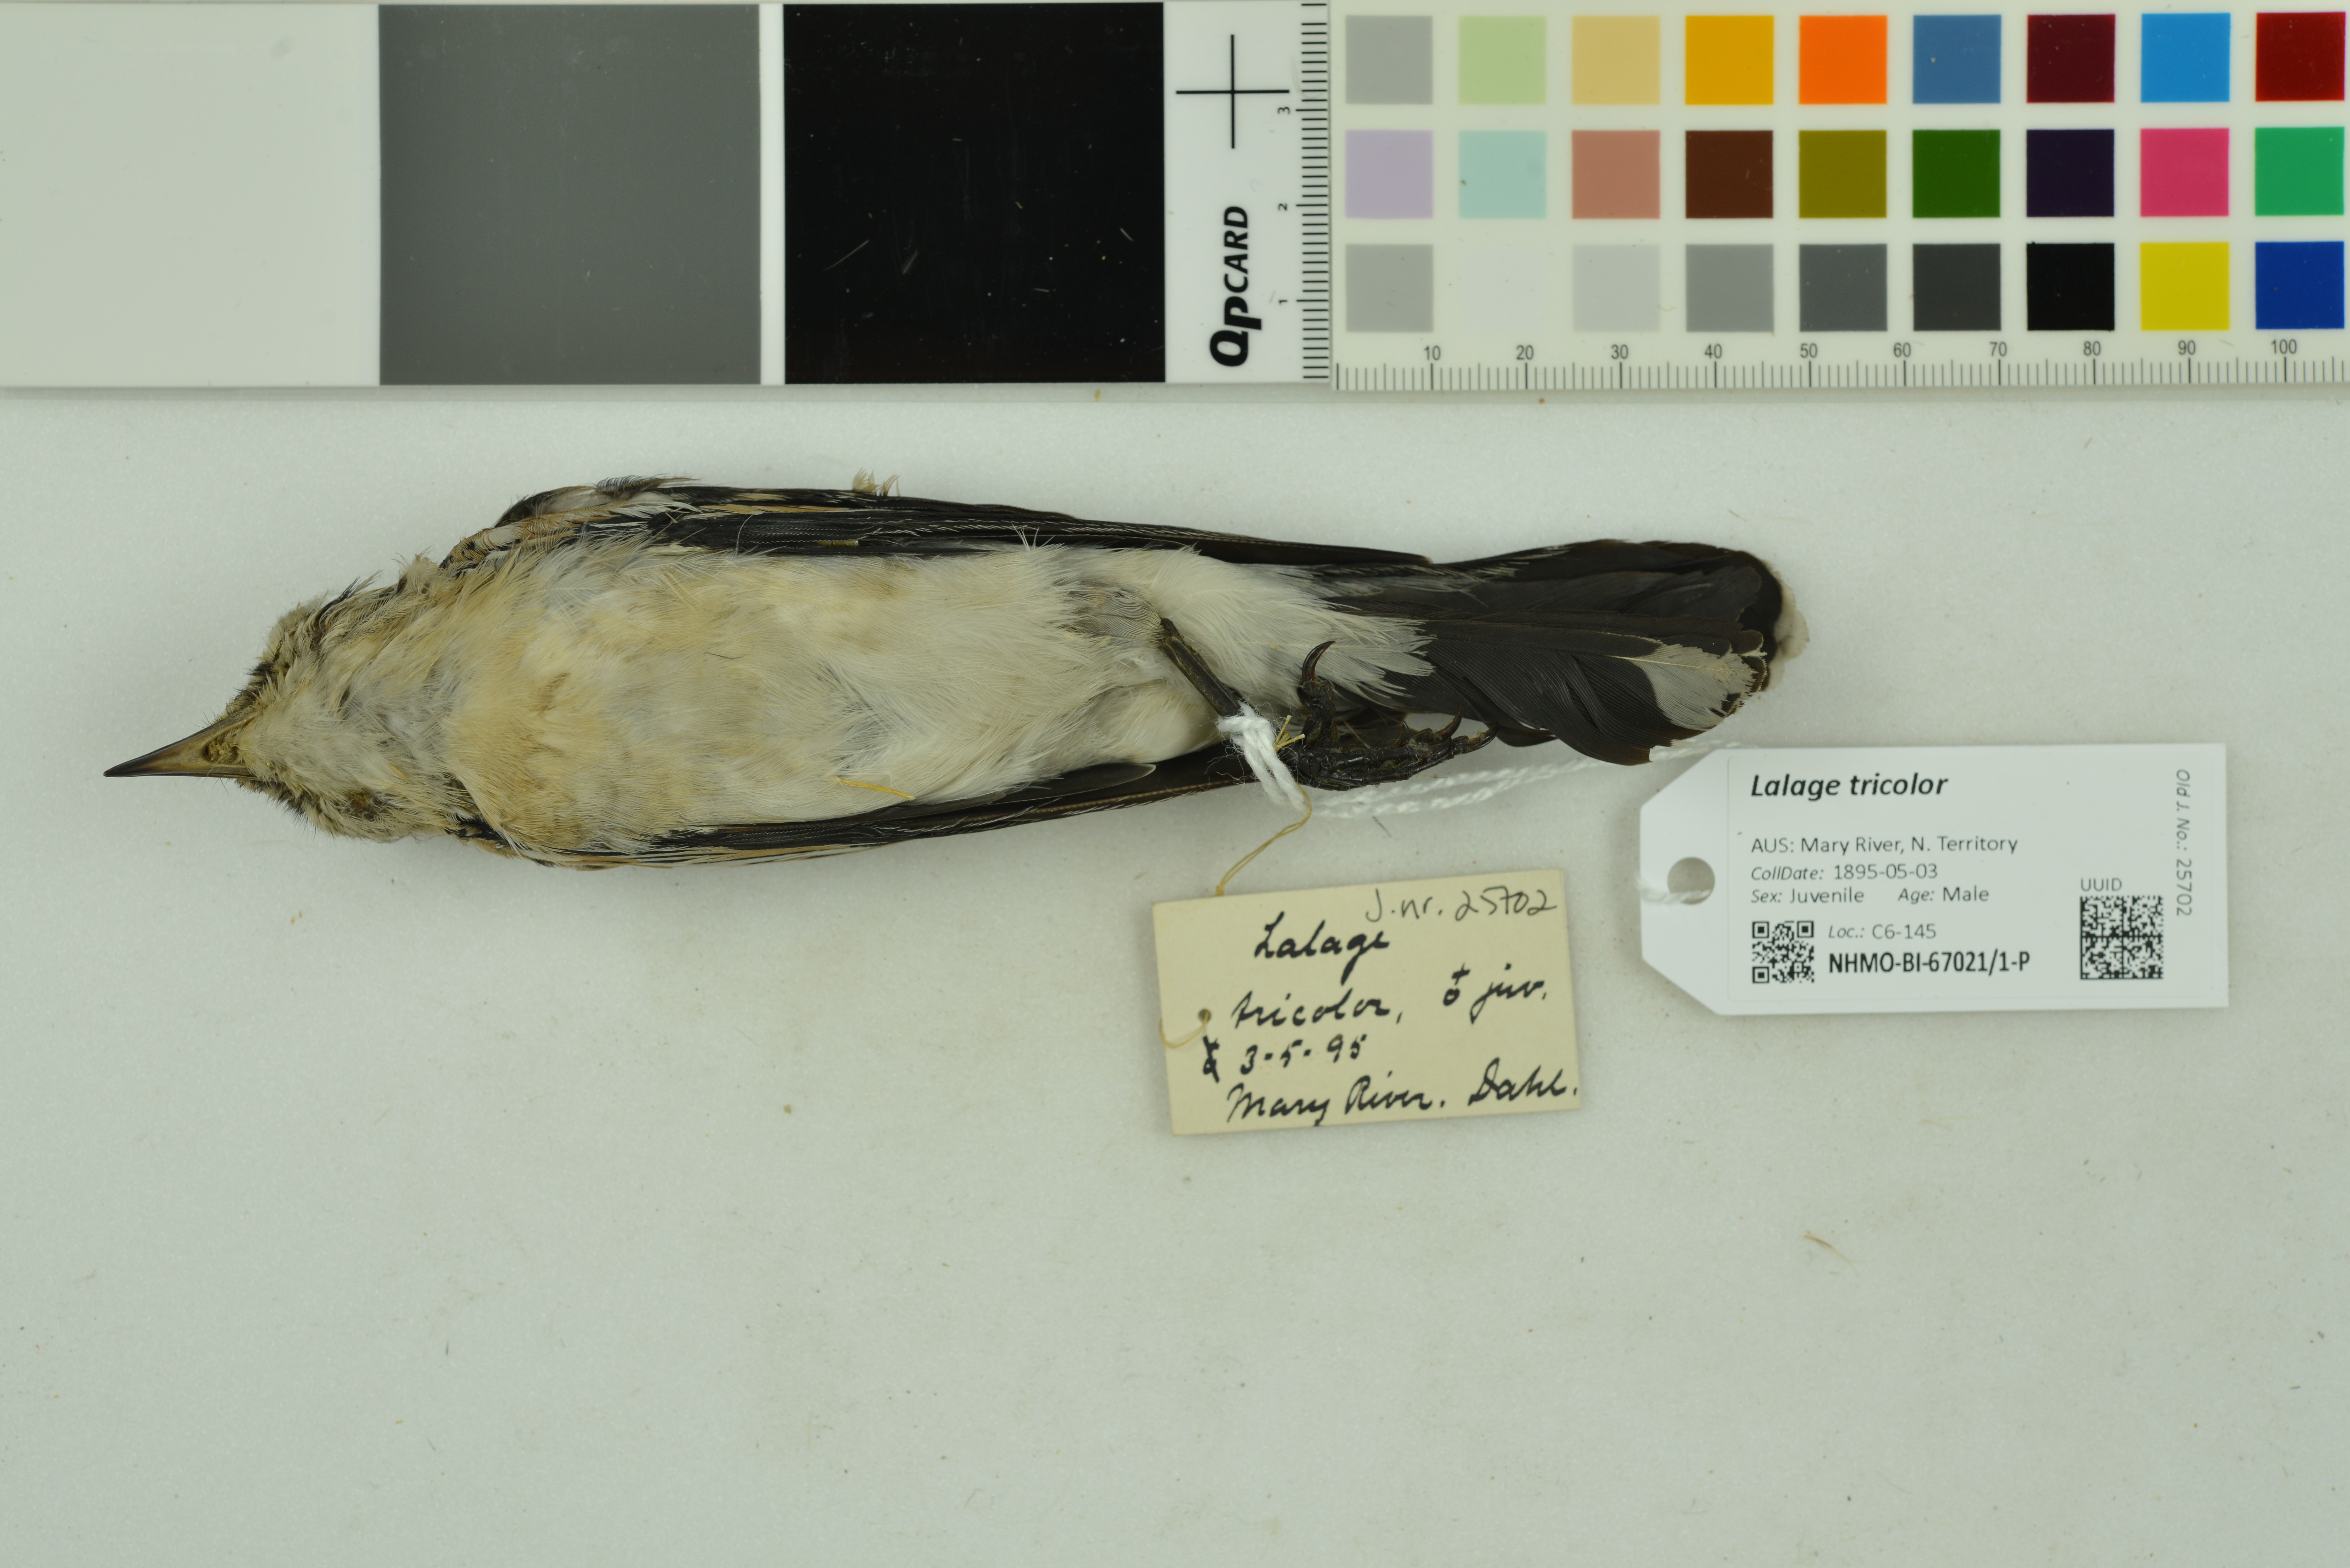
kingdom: Animalia
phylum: Chordata
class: Aves
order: Passeriformes
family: Campephagidae
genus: Lalage
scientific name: Lalage tricolor
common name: White-winged triller
